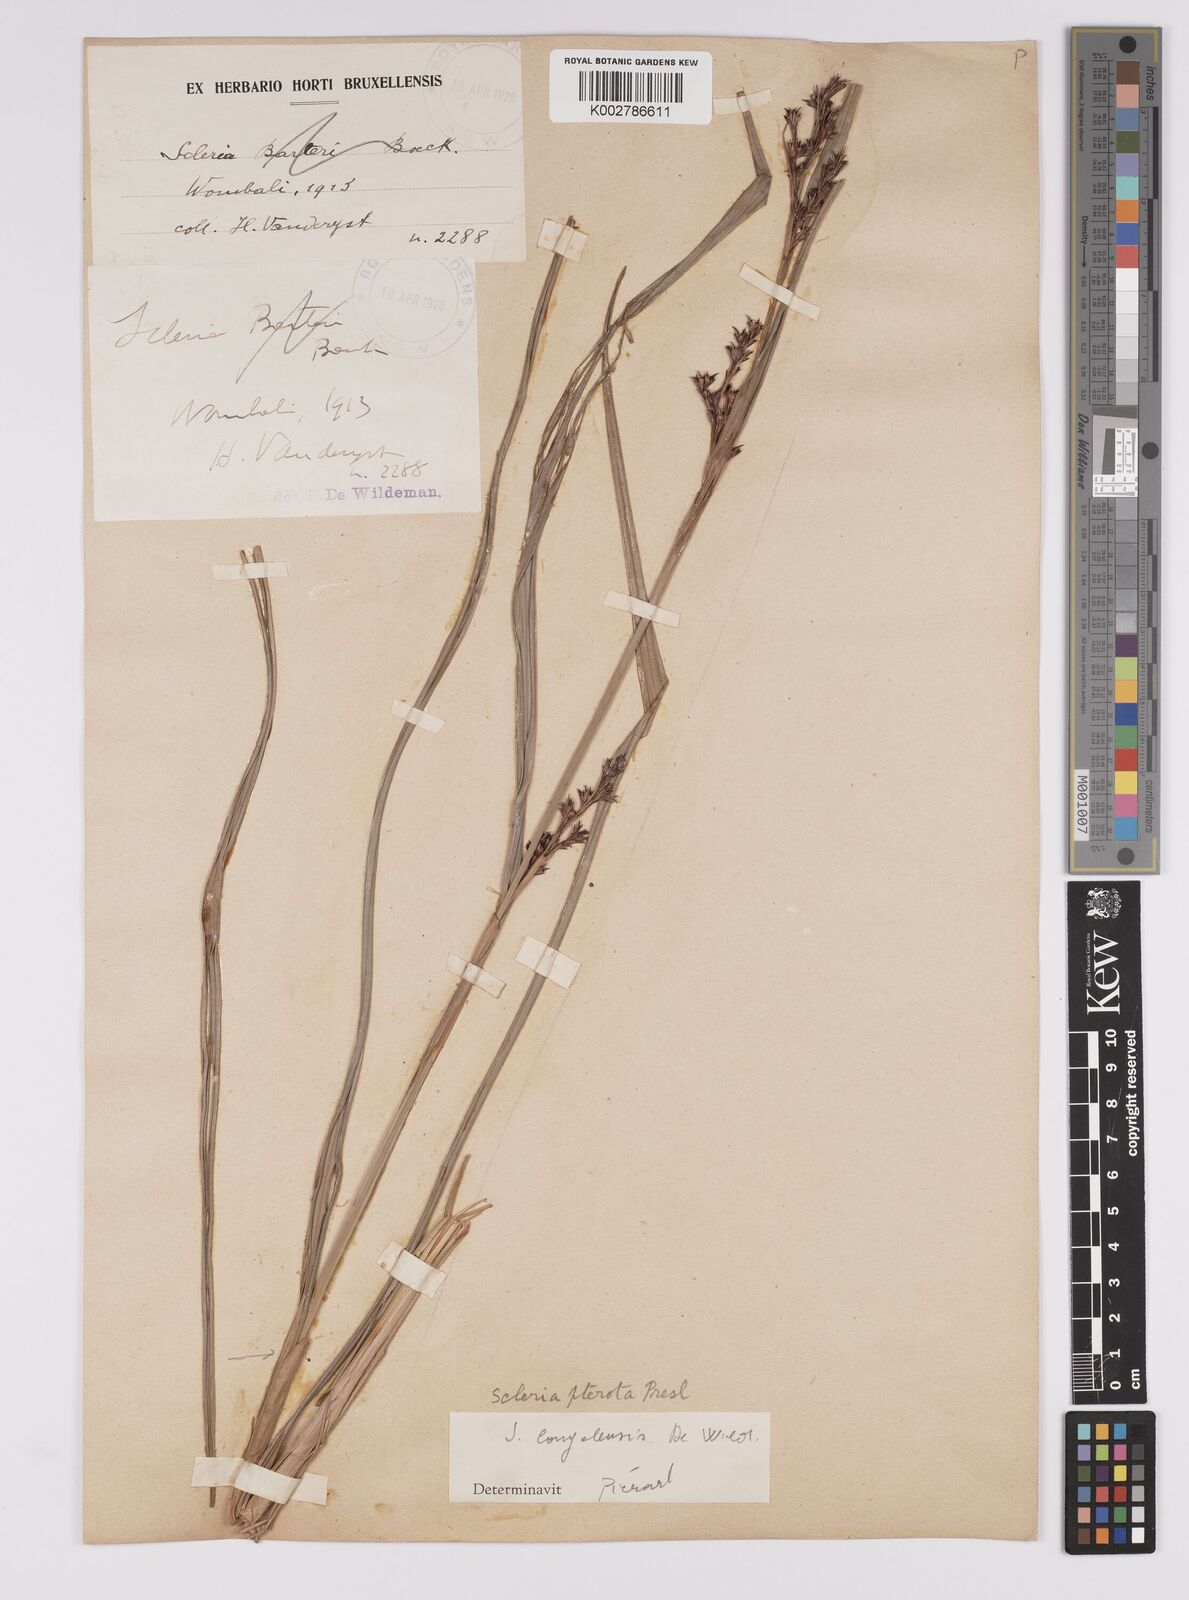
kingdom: Plantae
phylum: Tracheophyta
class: Liliopsida
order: Poales
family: Cyperaceae
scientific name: Cyperaceae
